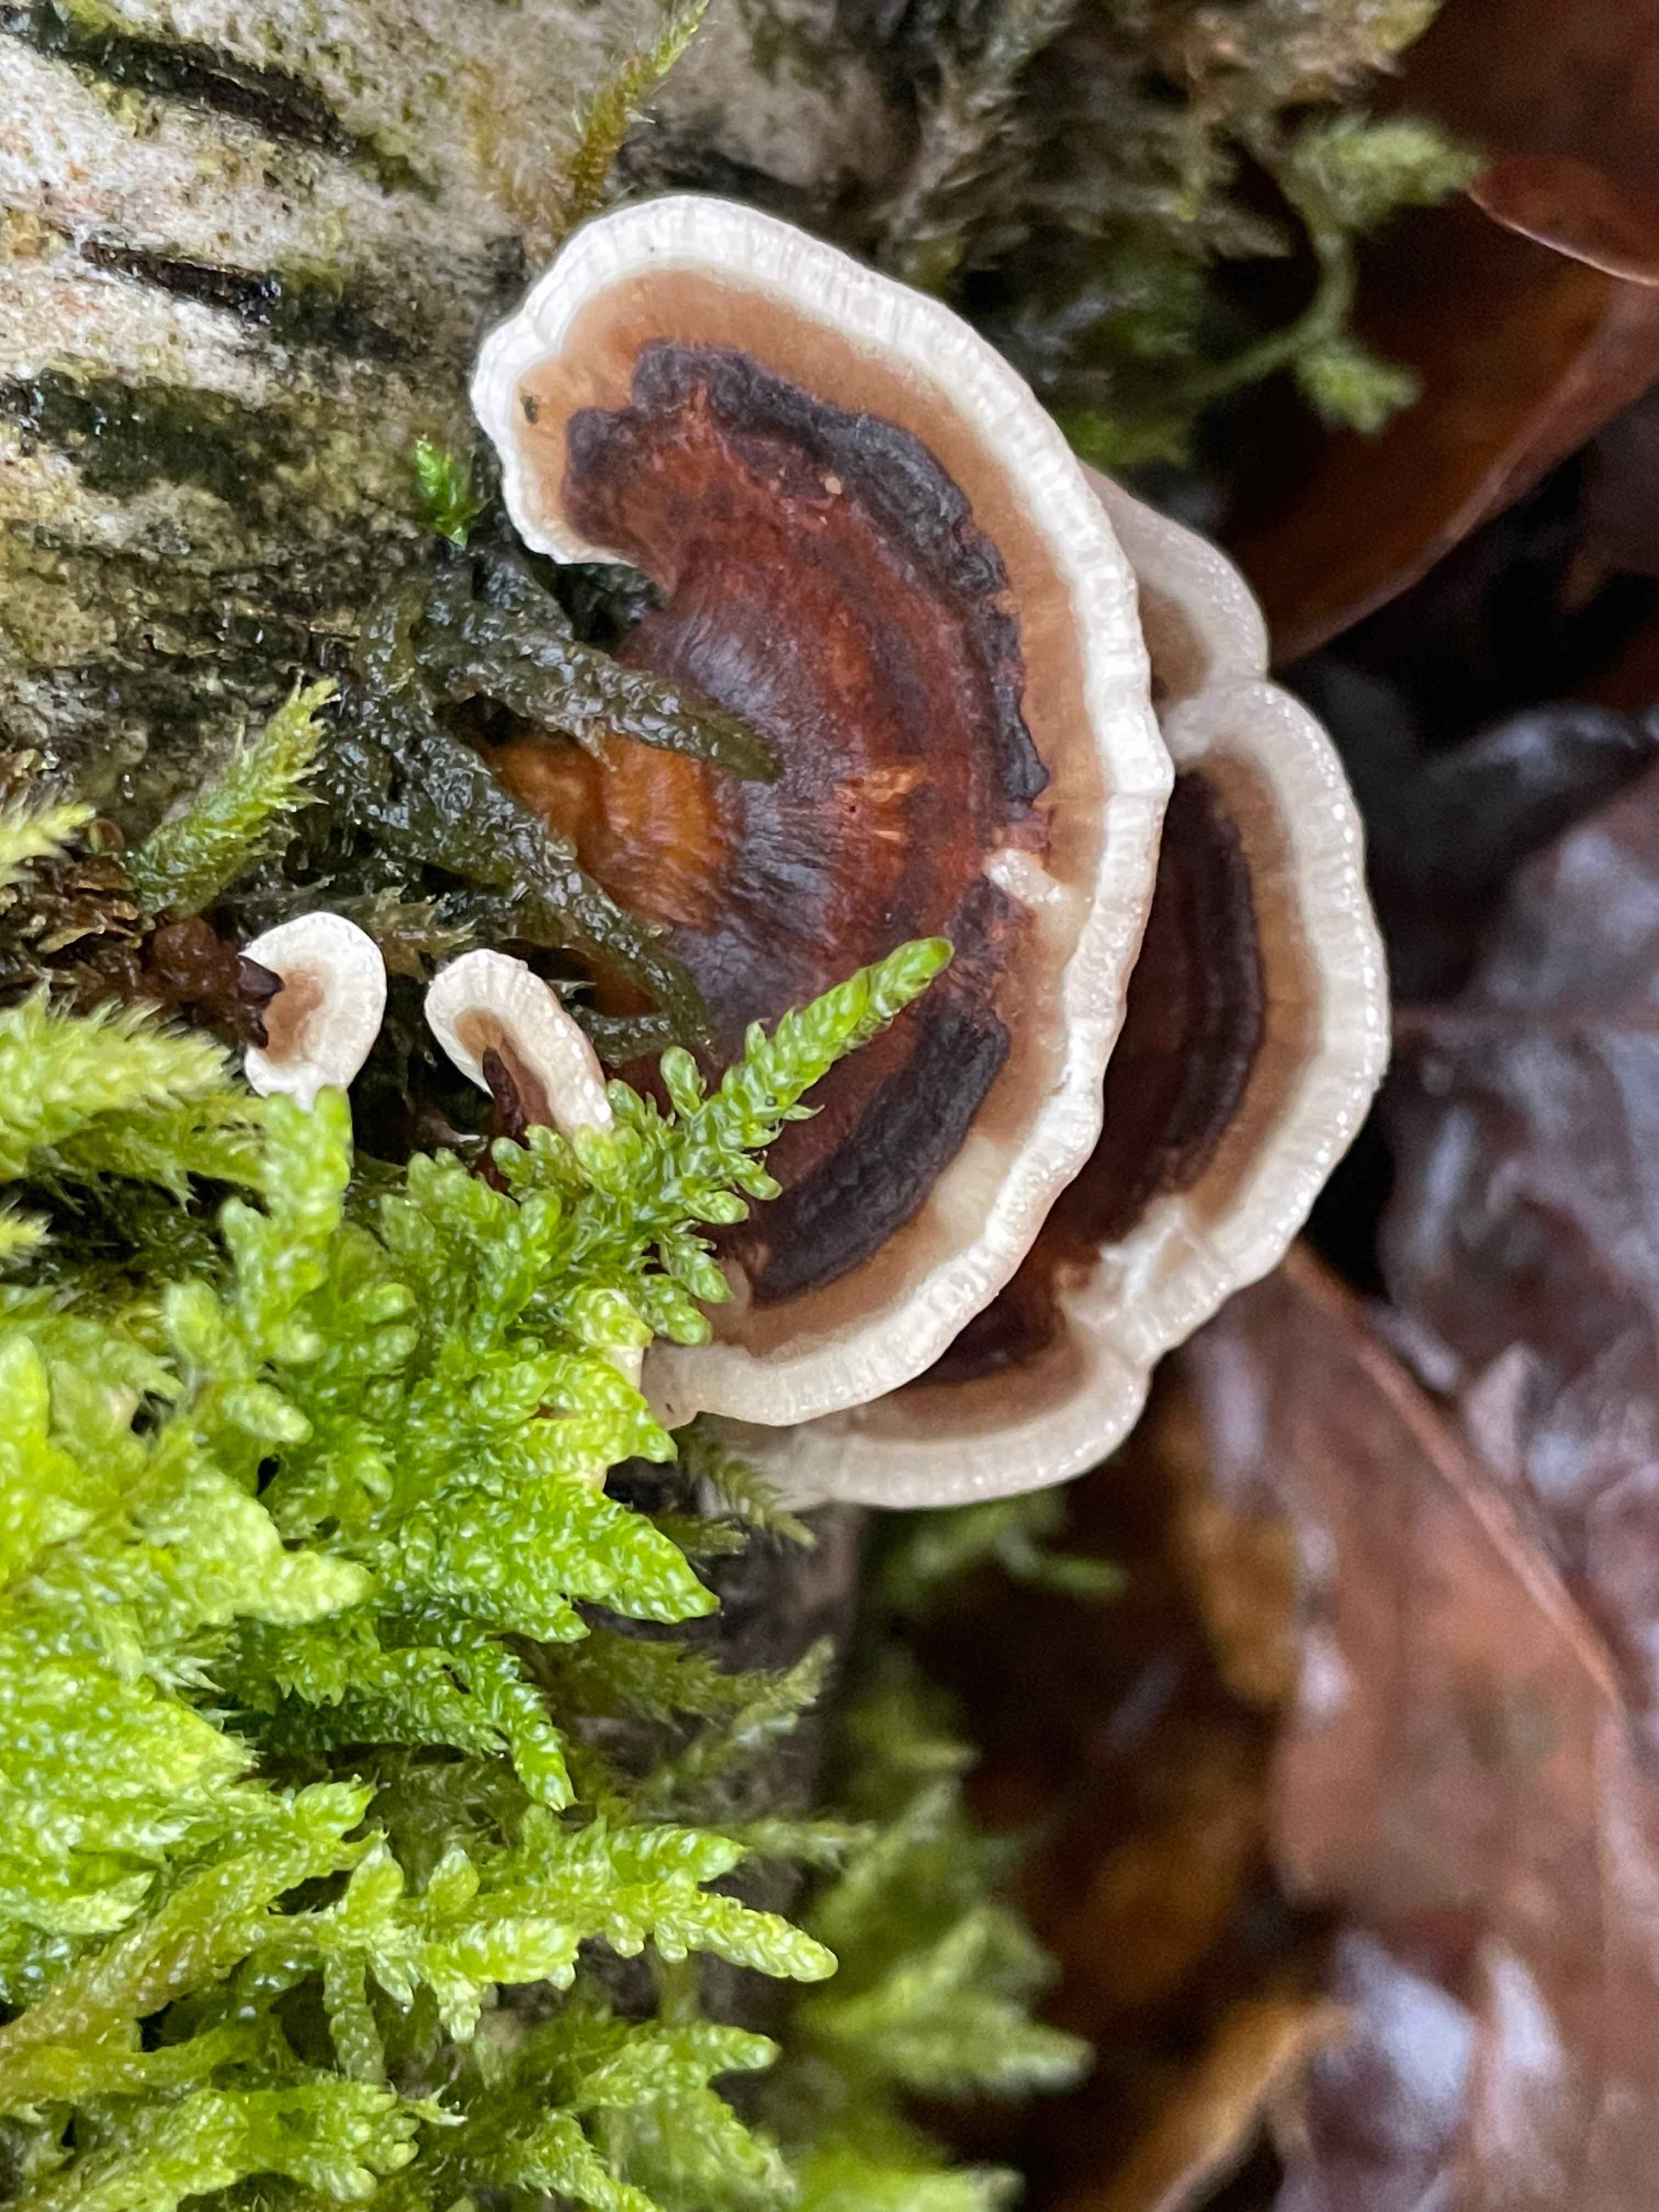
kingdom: Fungi
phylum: Basidiomycota
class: Agaricomycetes
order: Polyporales
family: Polyporaceae
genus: Trametes
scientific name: Trametes versicolor
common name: broget læderporesvamp
